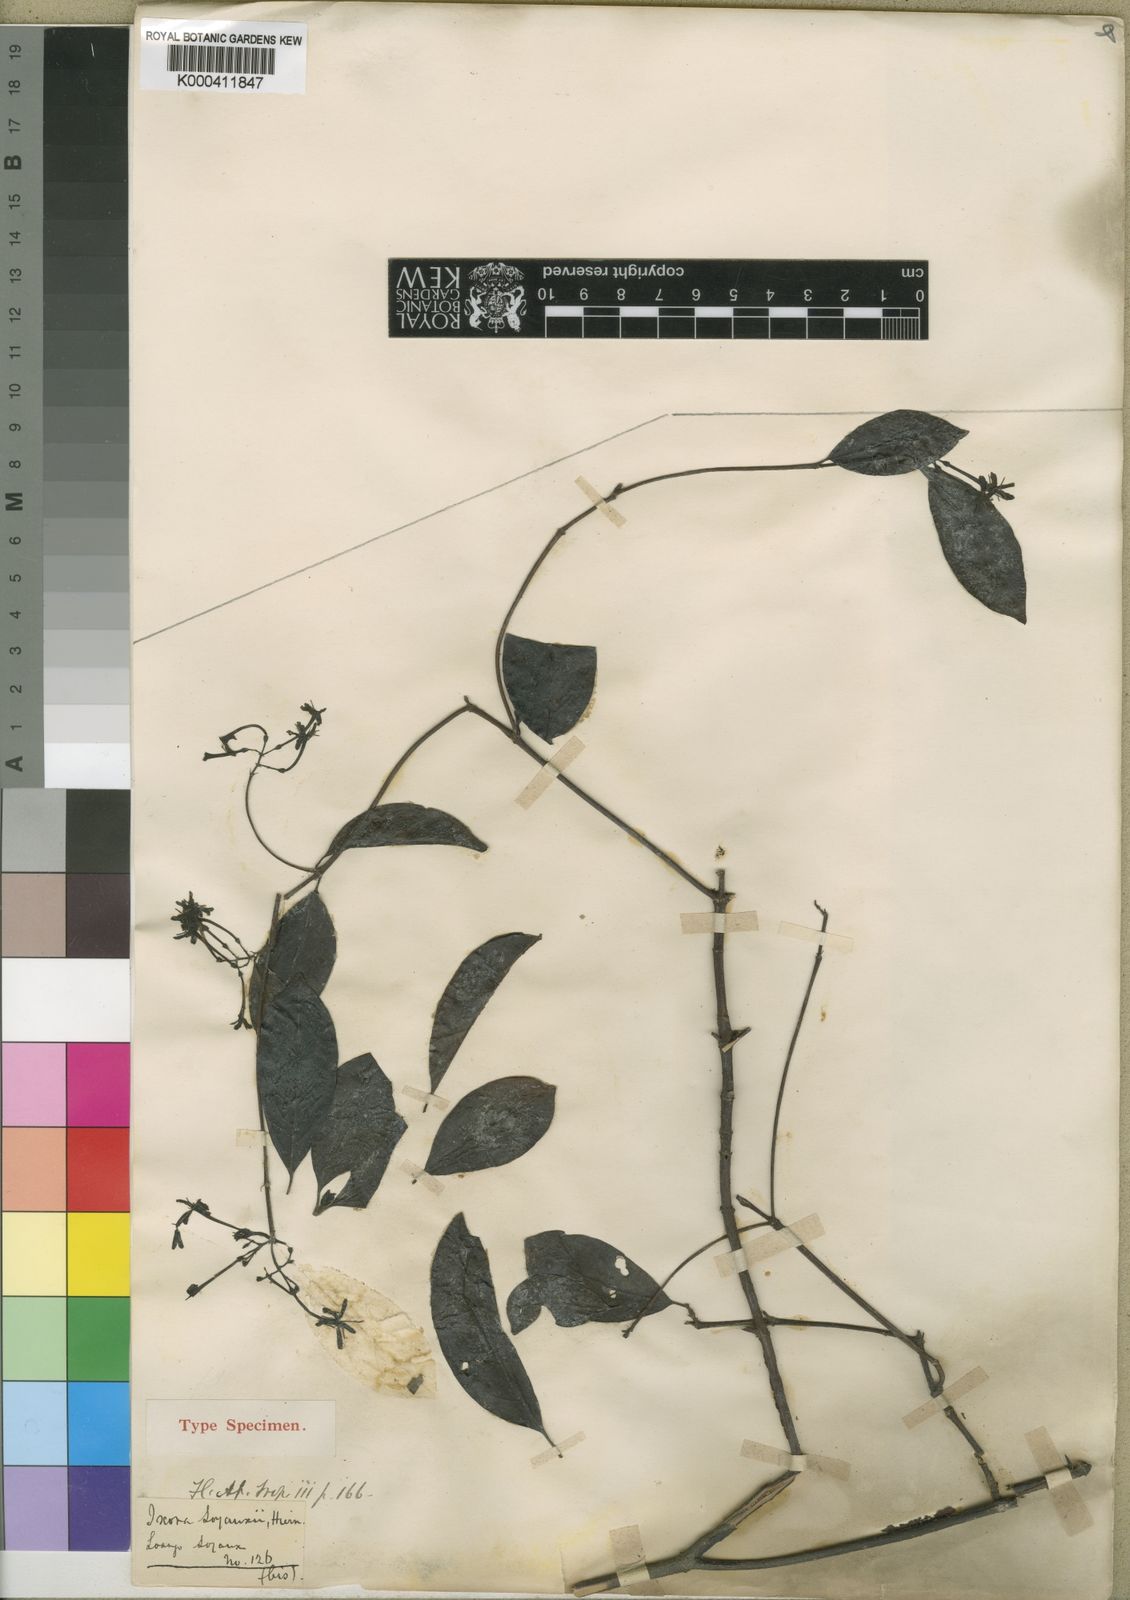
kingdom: Plantae
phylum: Tracheophyta
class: Magnoliopsida
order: Gentianales
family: Rubiaceae
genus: Nichallea
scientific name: Nichallea soyauxii
